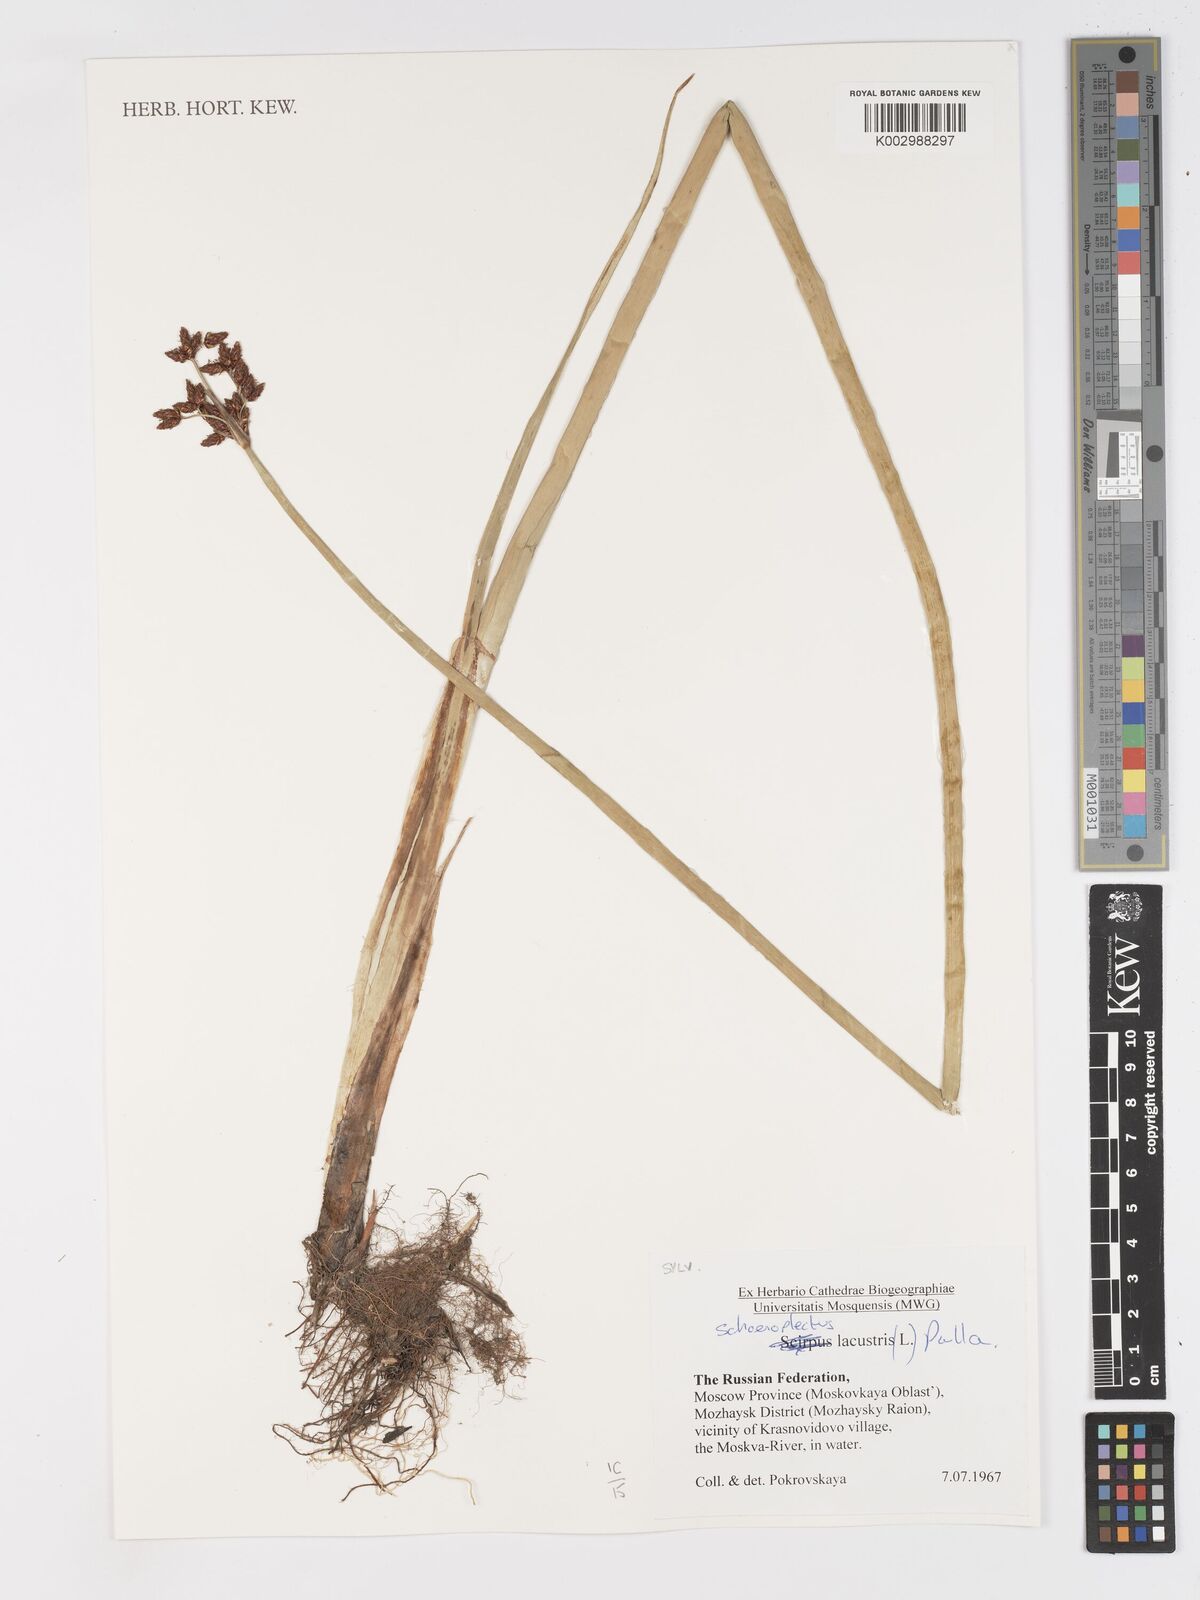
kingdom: Plantae
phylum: Tracheophyta
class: Liliopsida
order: Poales
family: Cyperaceae
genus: Schoenoplectus
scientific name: Schoenoplectus lacustris
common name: Common club-rush
